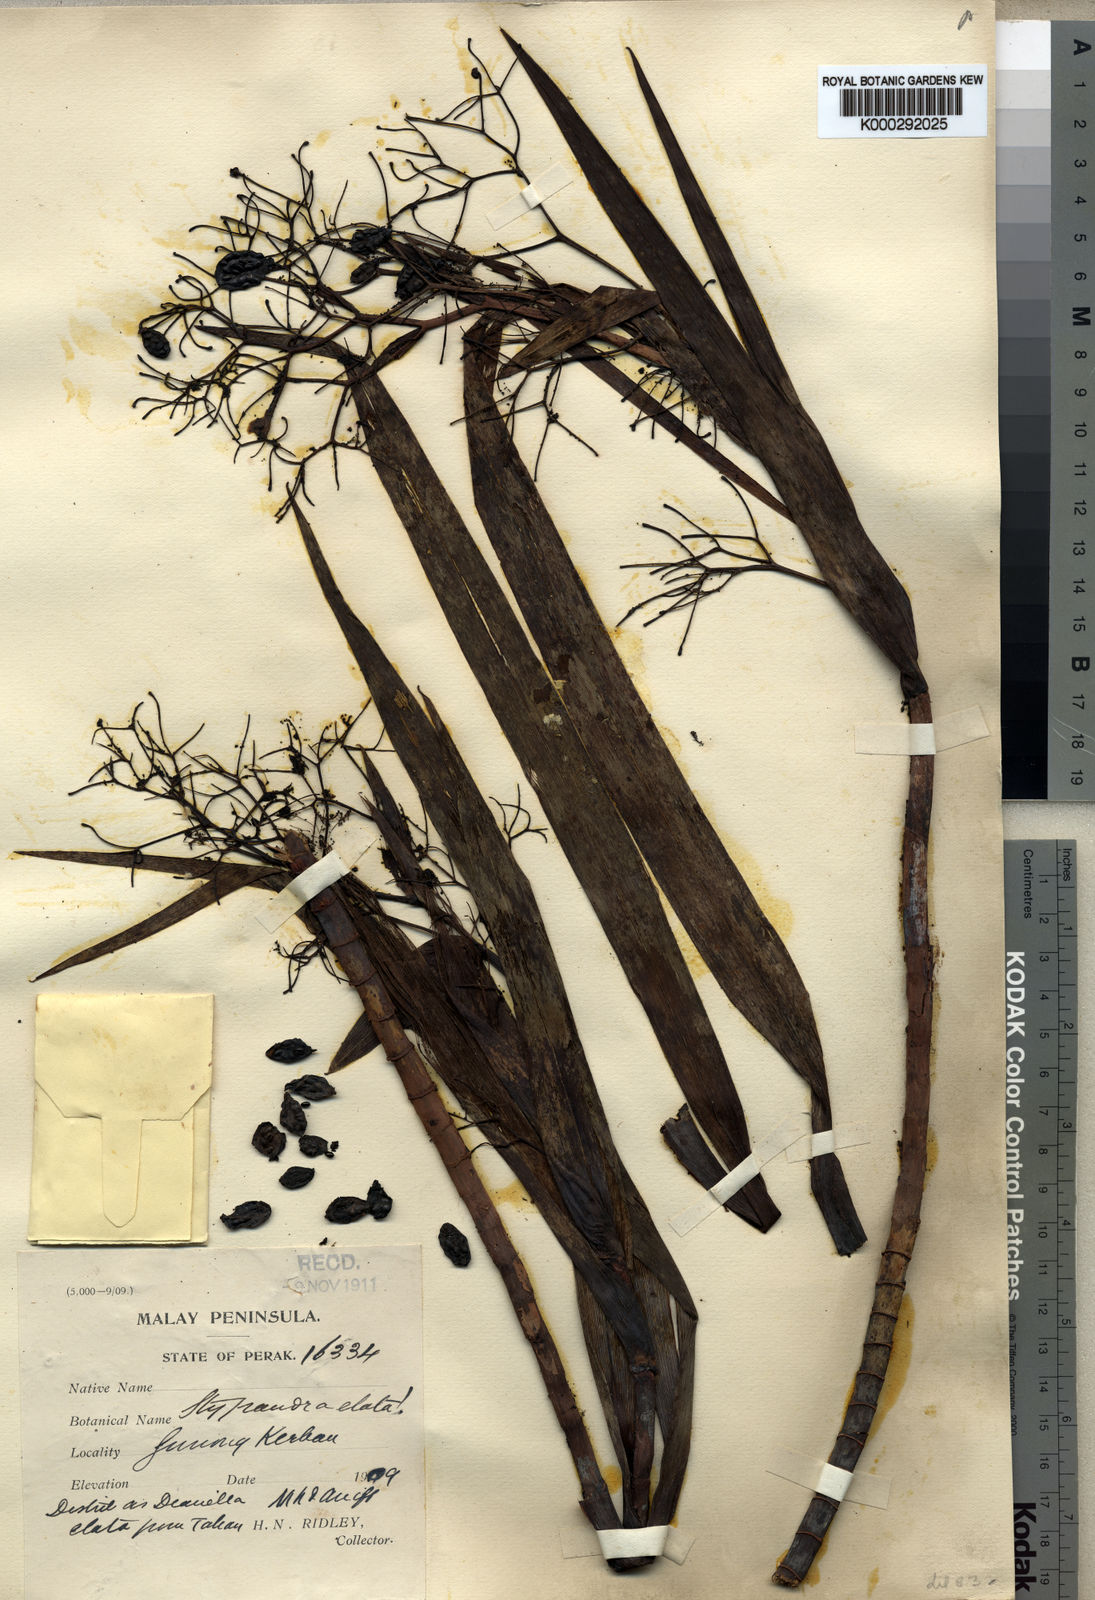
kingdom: Plantae
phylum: Tracheophyta
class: Liliopsida
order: Asparagales
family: Asphodelaceae
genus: Rhuacophila
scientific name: Rhuacophila javanica
